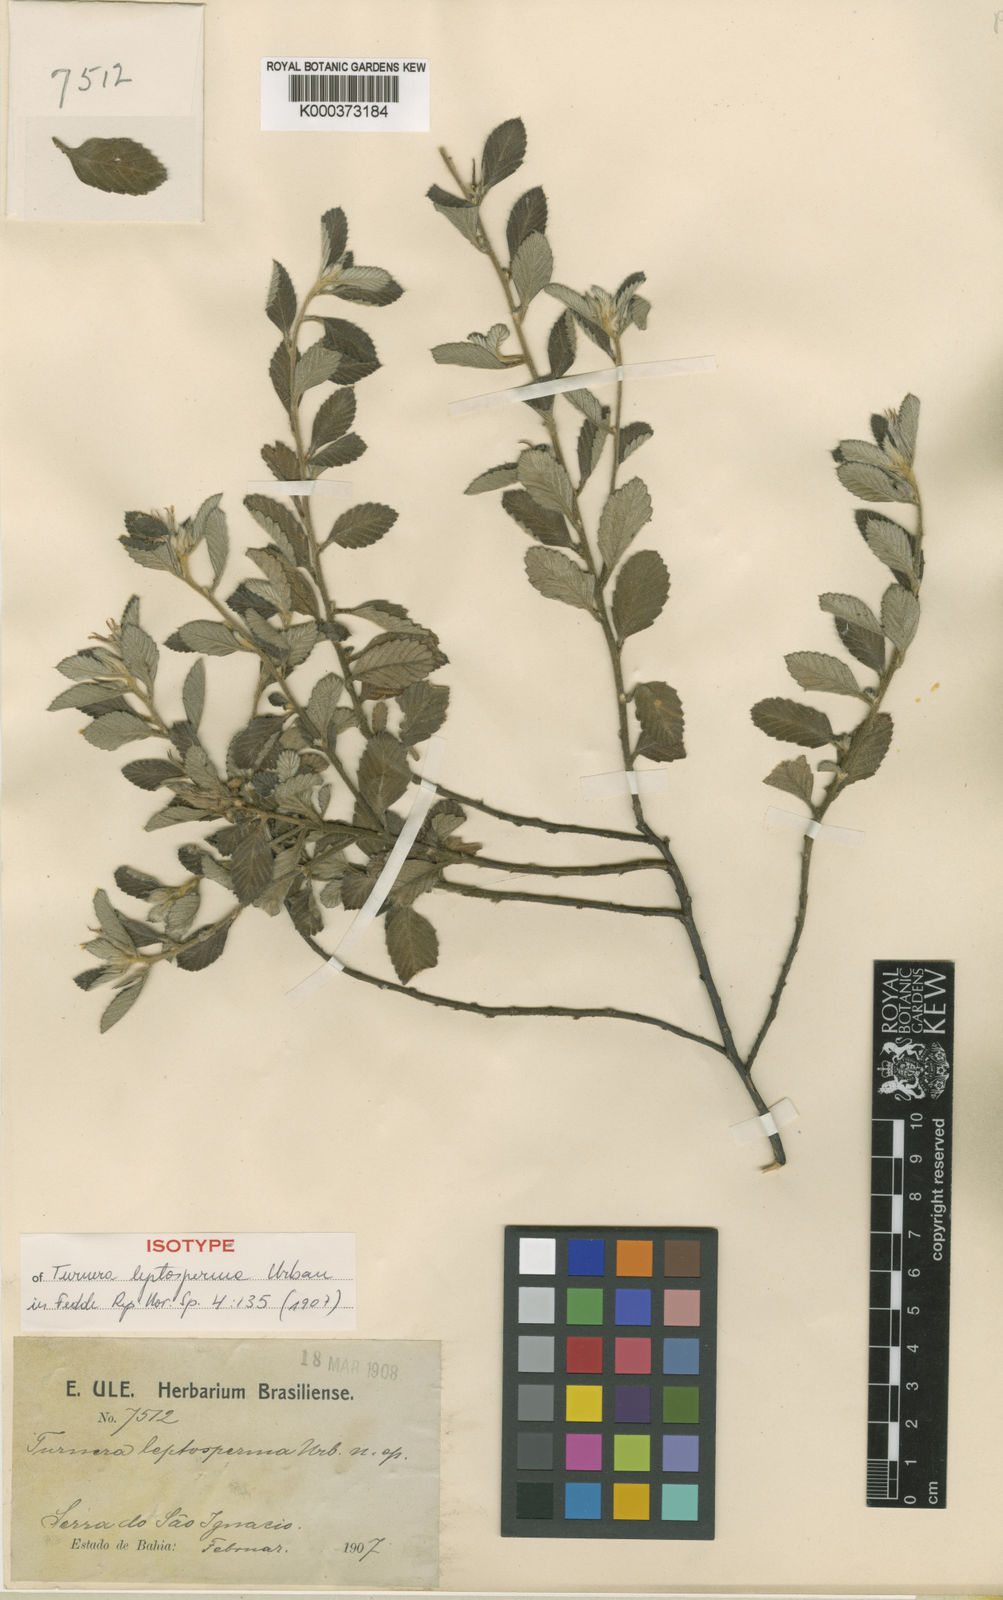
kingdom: Plantae
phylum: Tracheophyta
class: Magnoliopsida
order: Malpighiales
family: Turneraceae
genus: Turnera
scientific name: Turnera leptosperma
